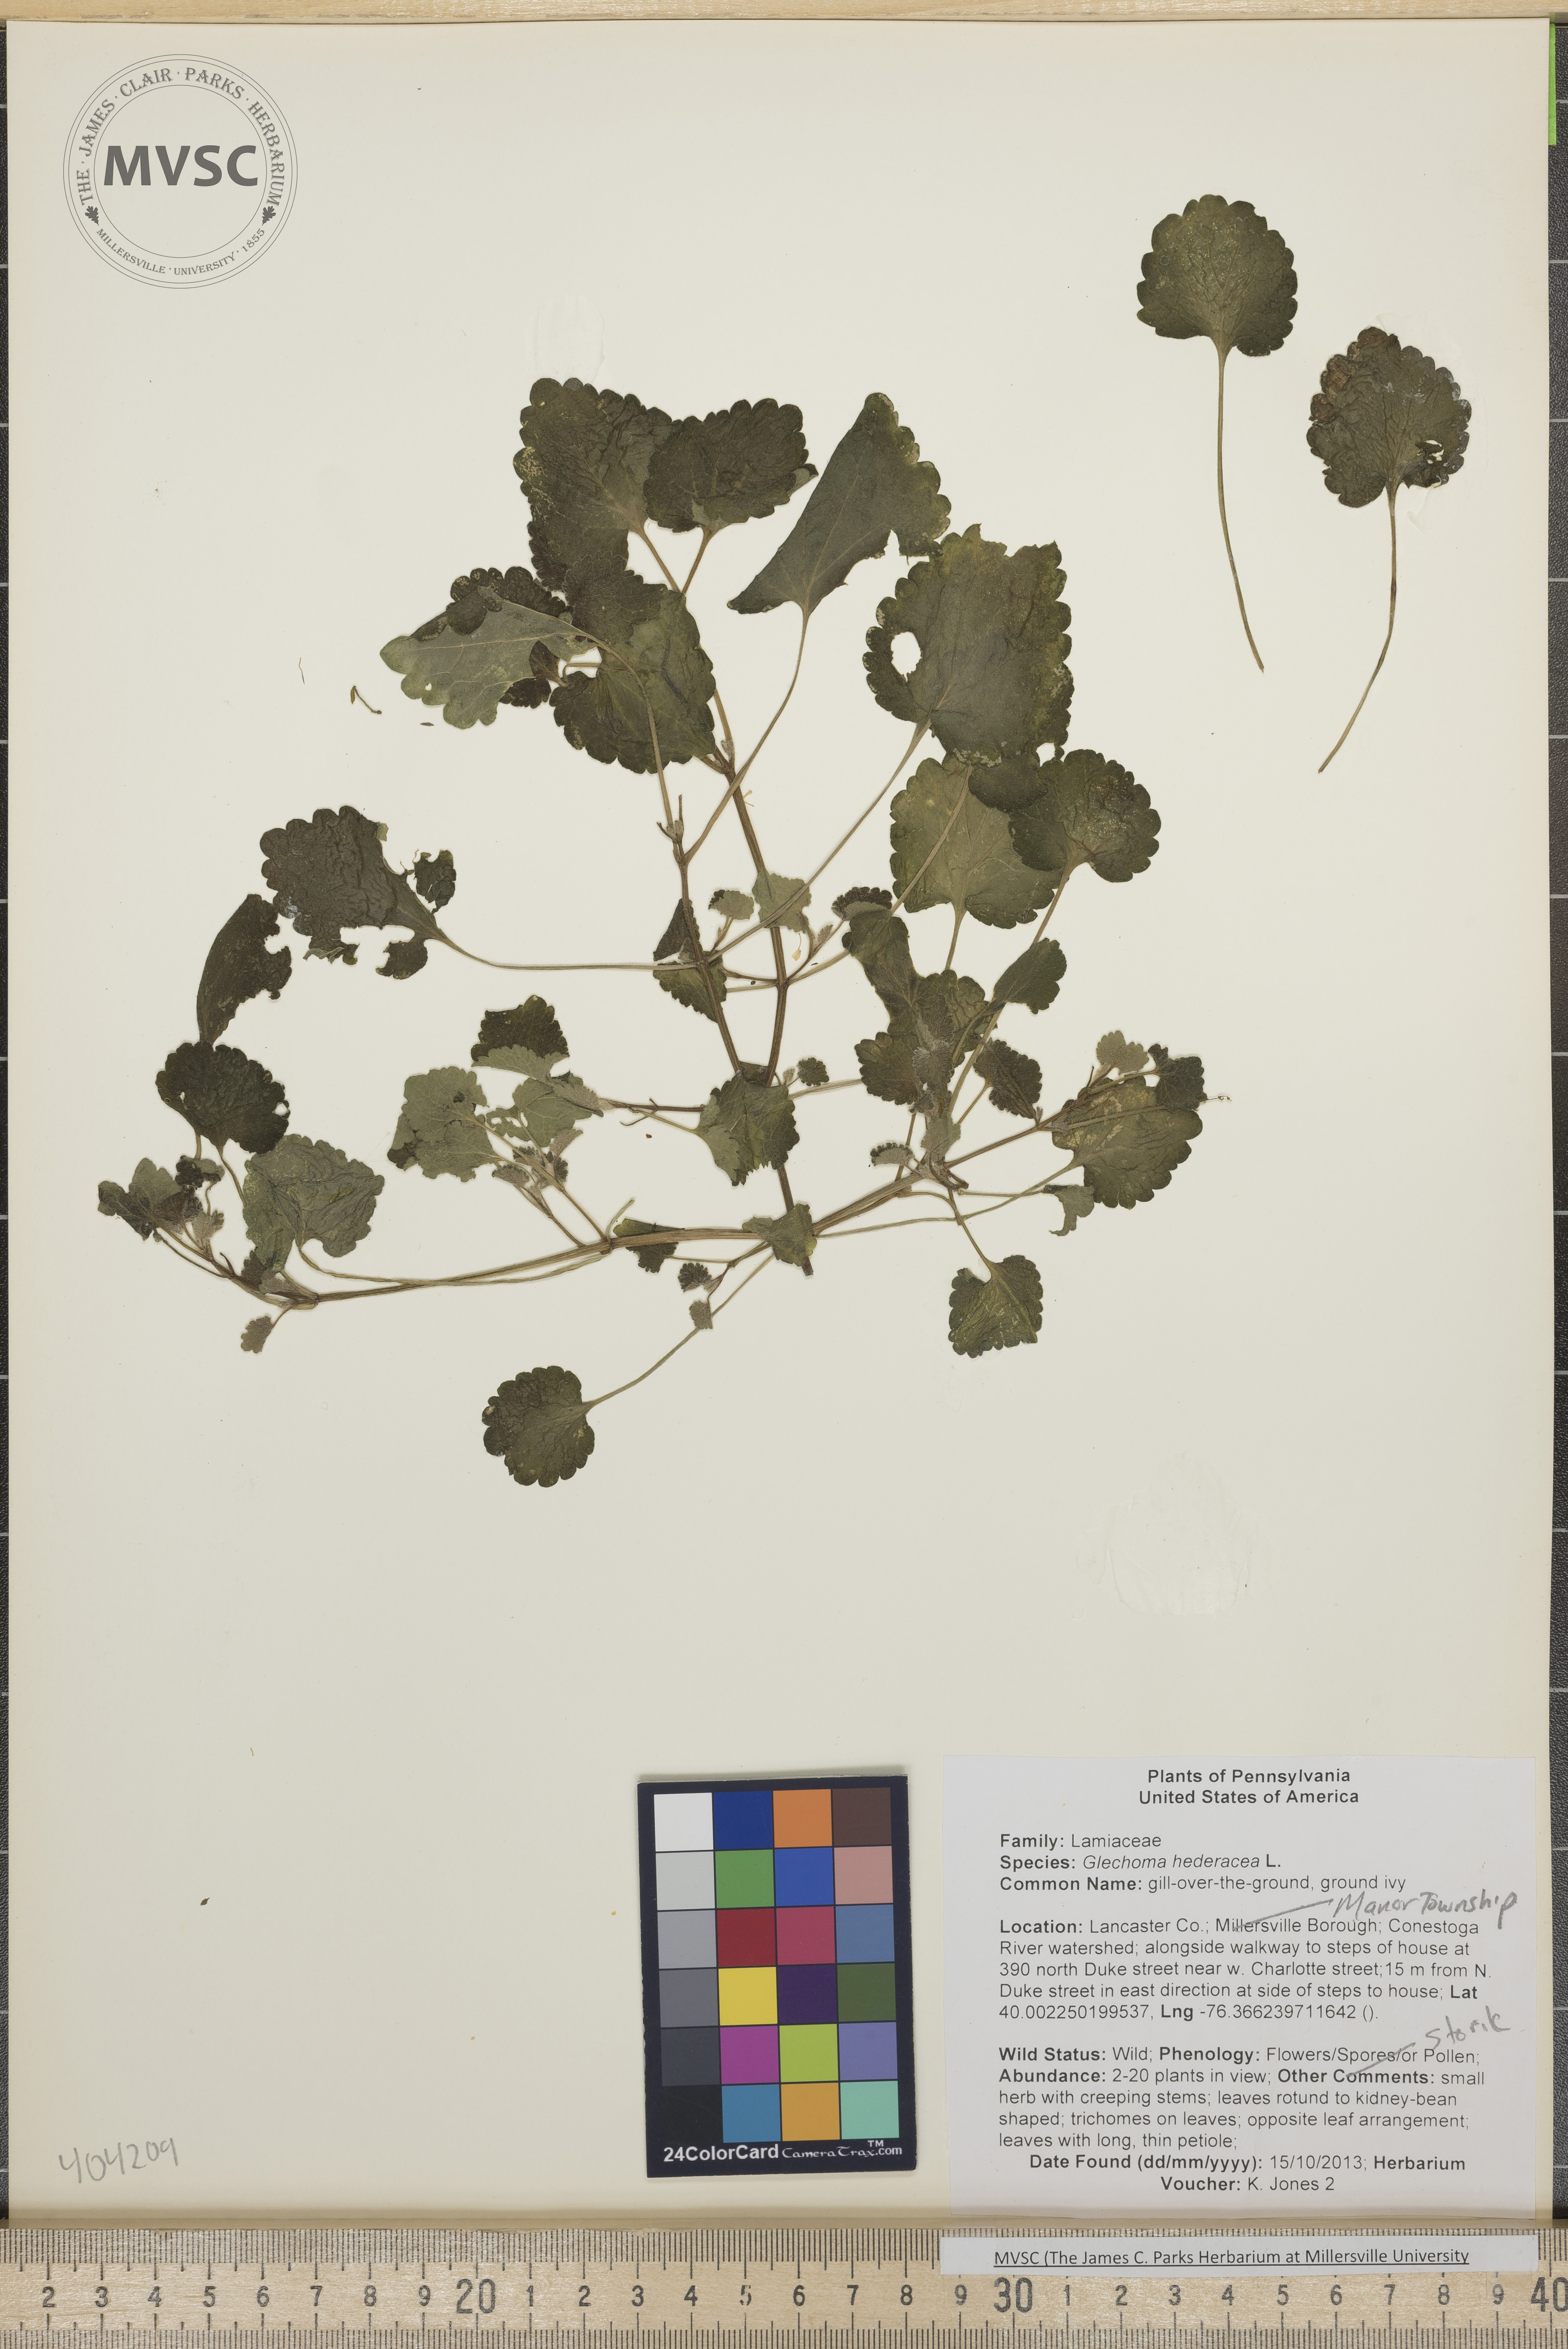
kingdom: Plantae
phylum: Tracheophyta
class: Magnoliopsida
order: Lamiales
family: Lamiaceae
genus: Glechoma
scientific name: Glechoma hederacea
